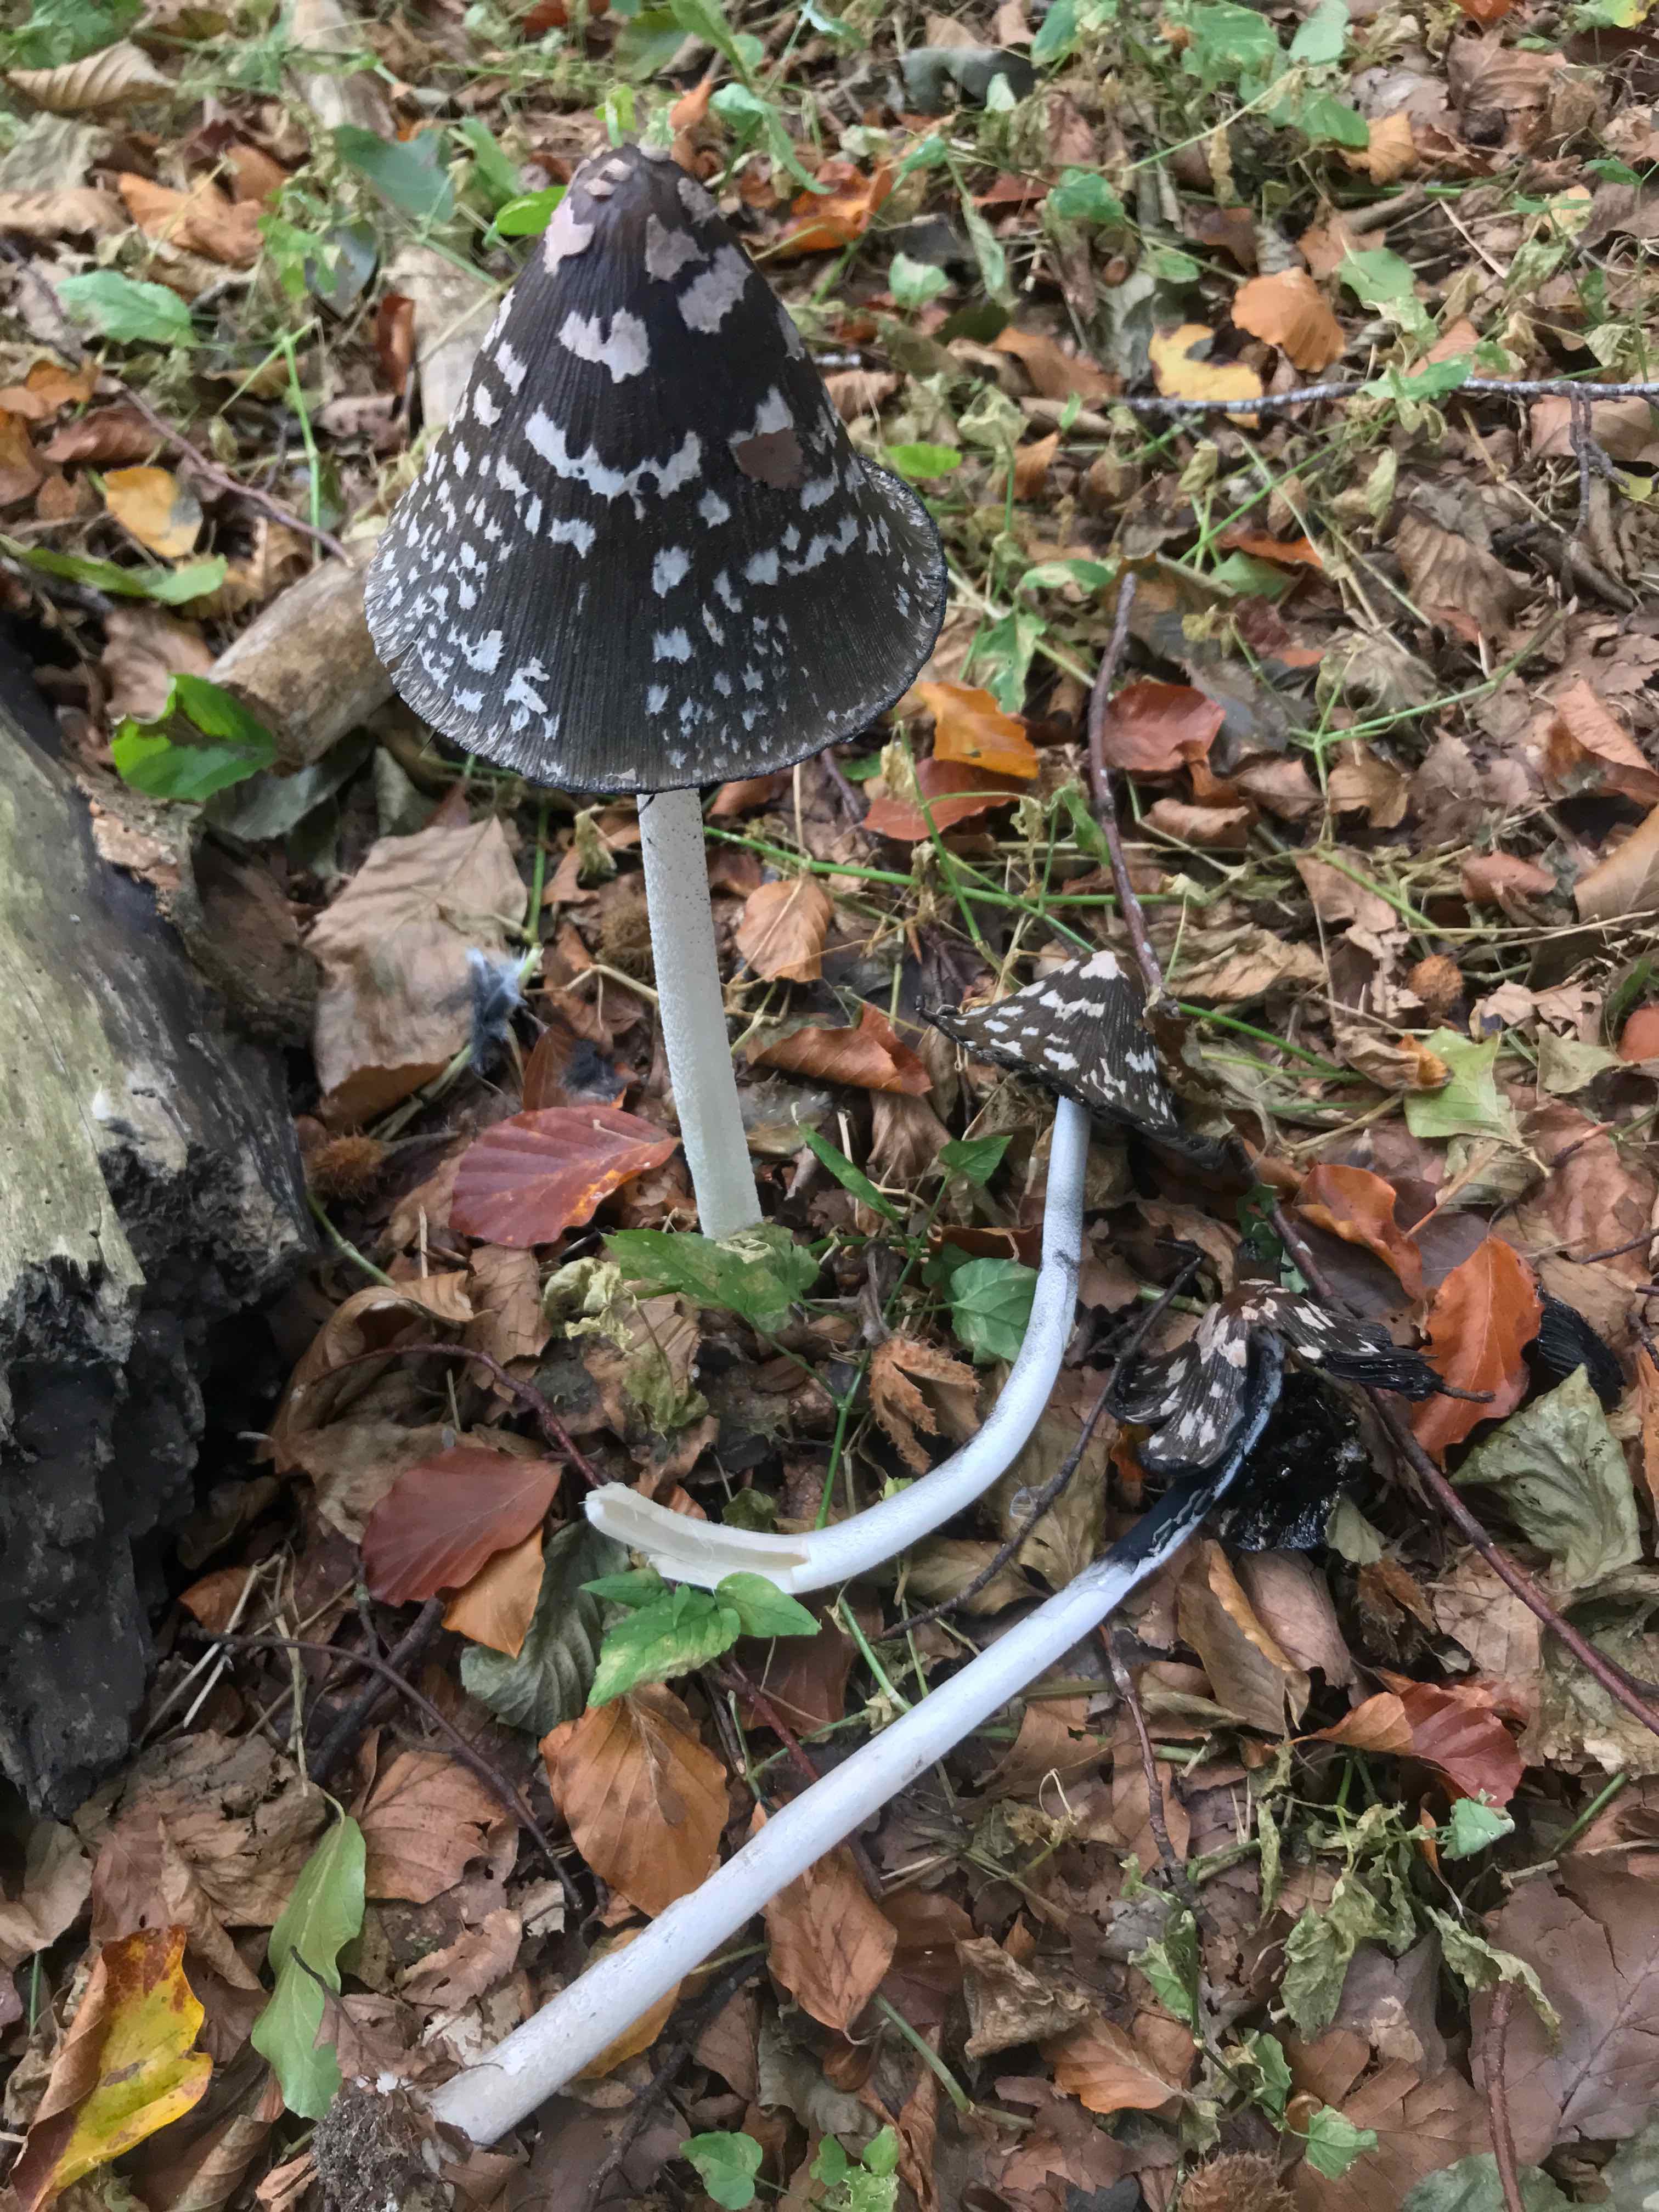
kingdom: Fungi
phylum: Basidiomycota
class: Agaricomycetes
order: Agaricales
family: Psathyrellaceae
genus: Coprinopsis
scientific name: Coprinopsis picacea
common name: skade-blækhat
